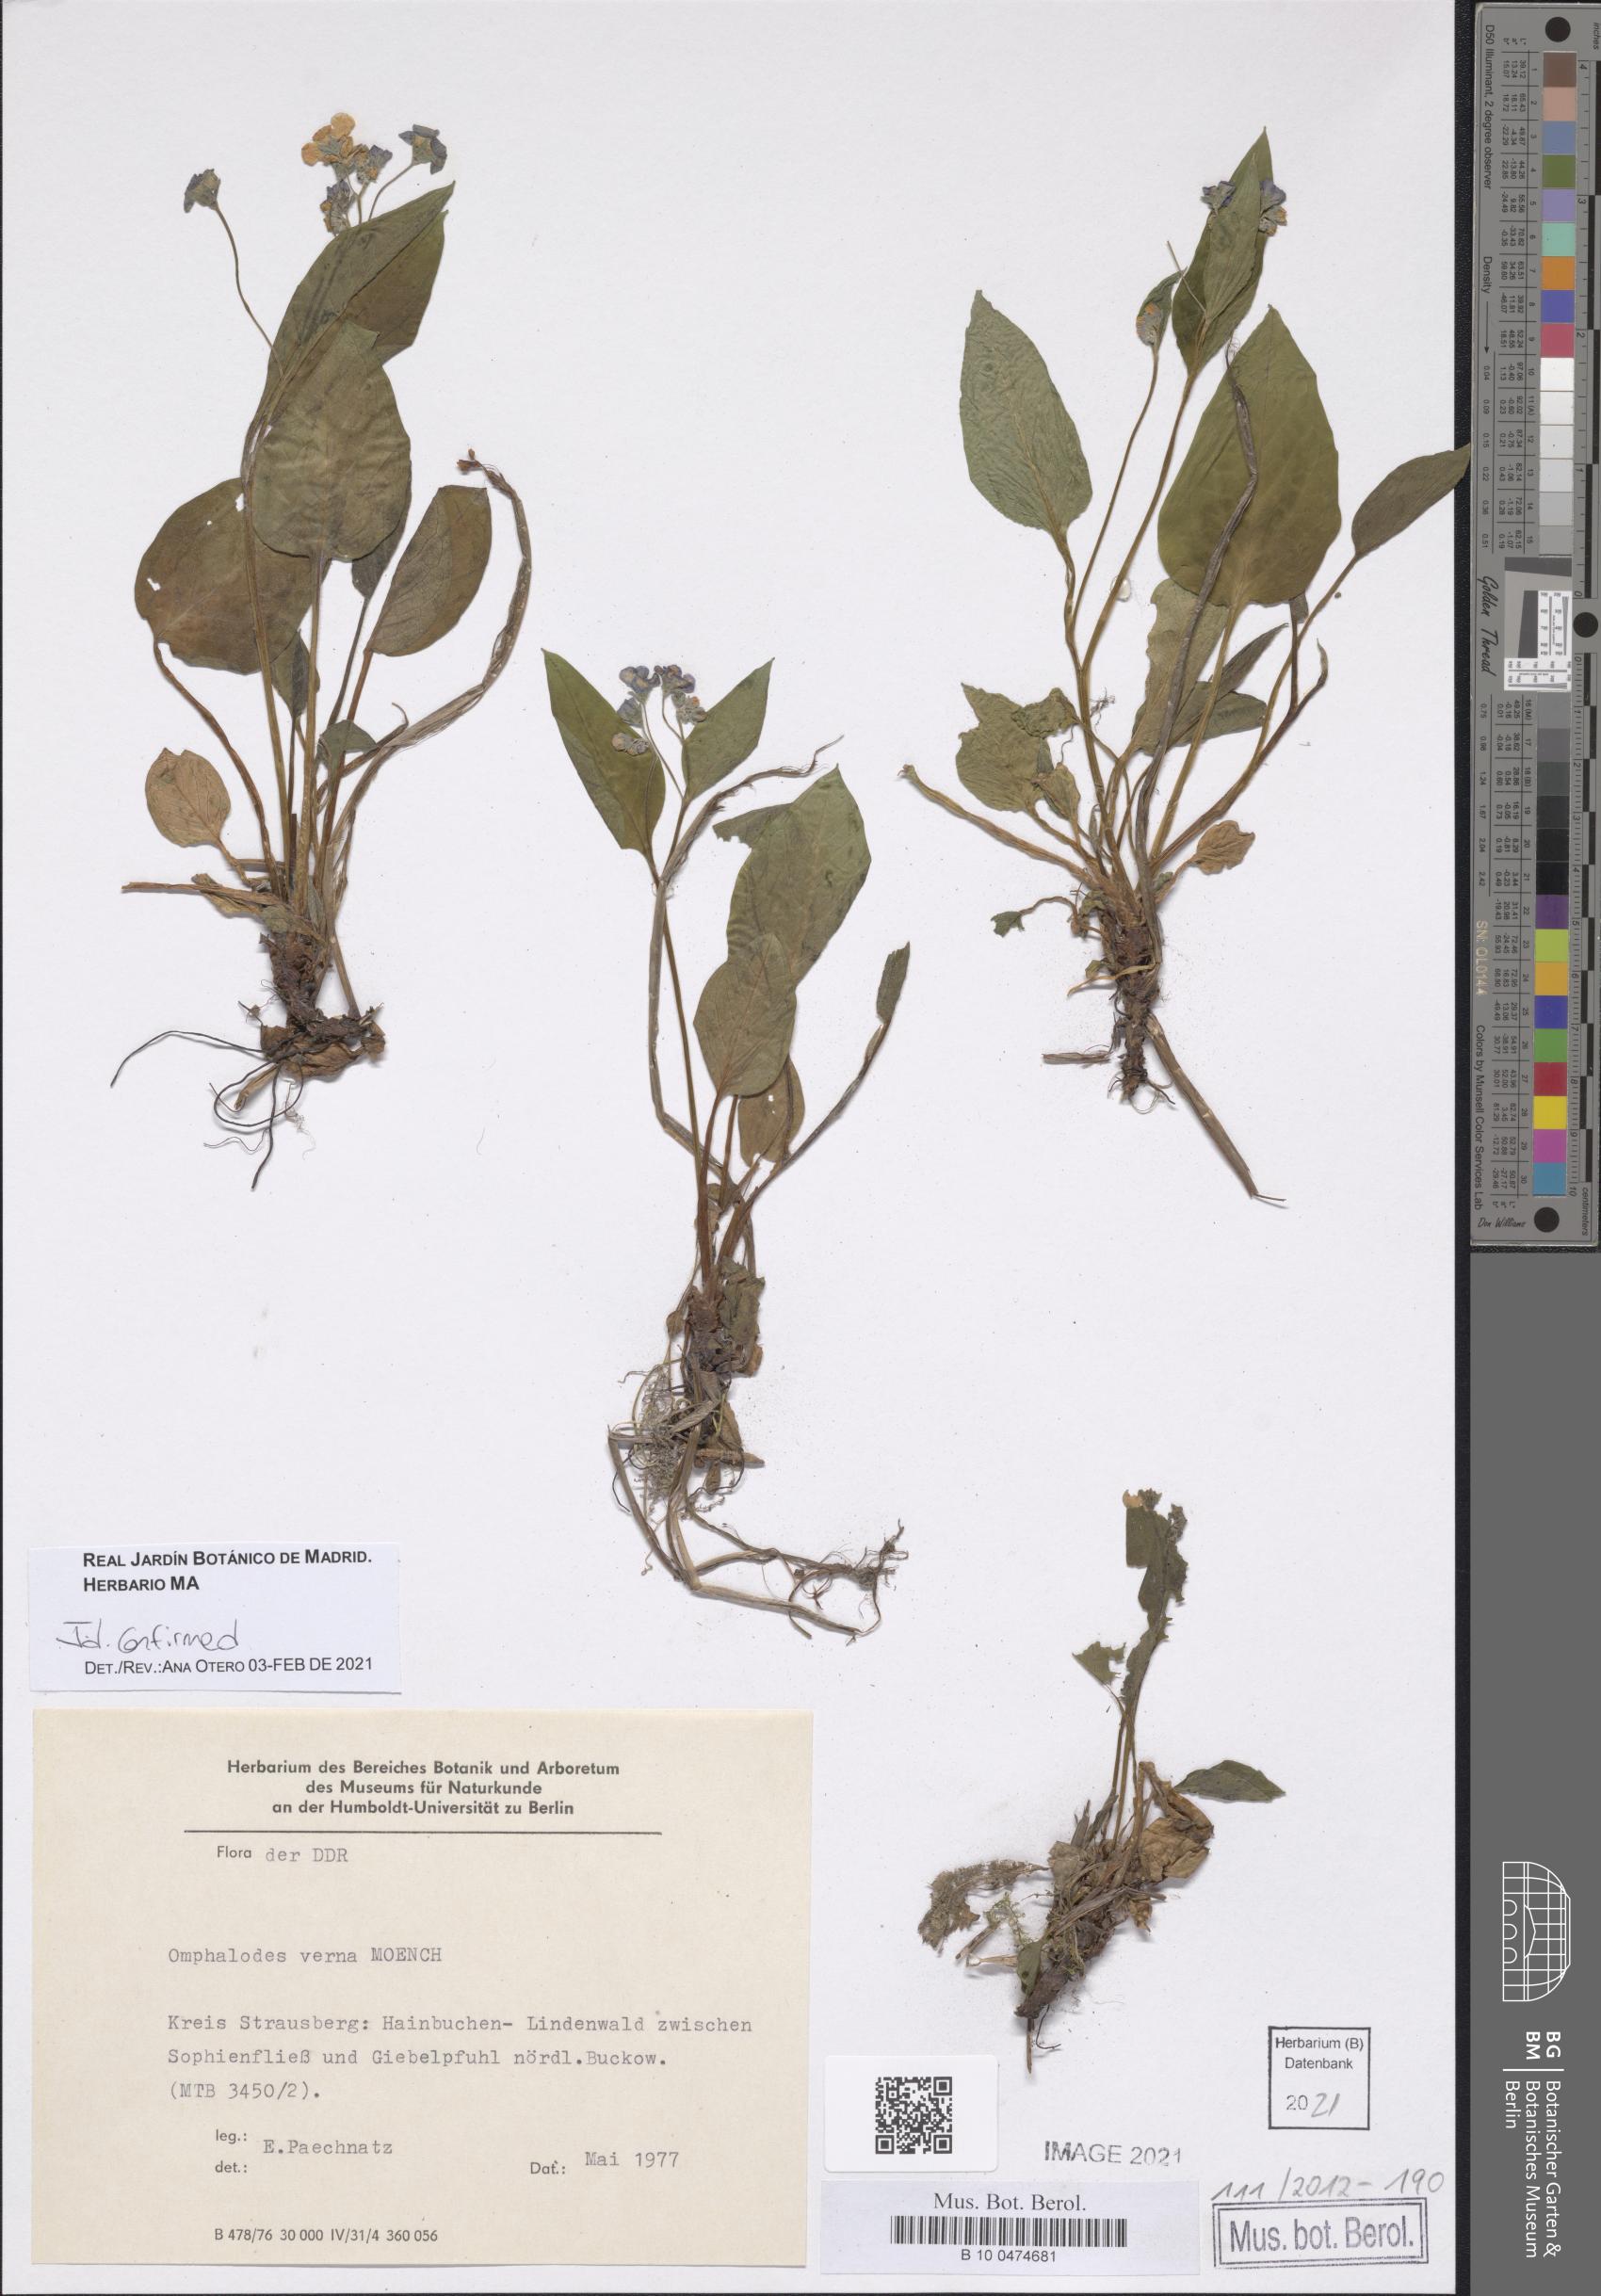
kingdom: Plantae
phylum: Tracheophyta
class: Magnoliopsida
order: Boraginales
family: Boraginaceae
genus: Omphalodes
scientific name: Omphalodes verna
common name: Blue-eyed-mary
